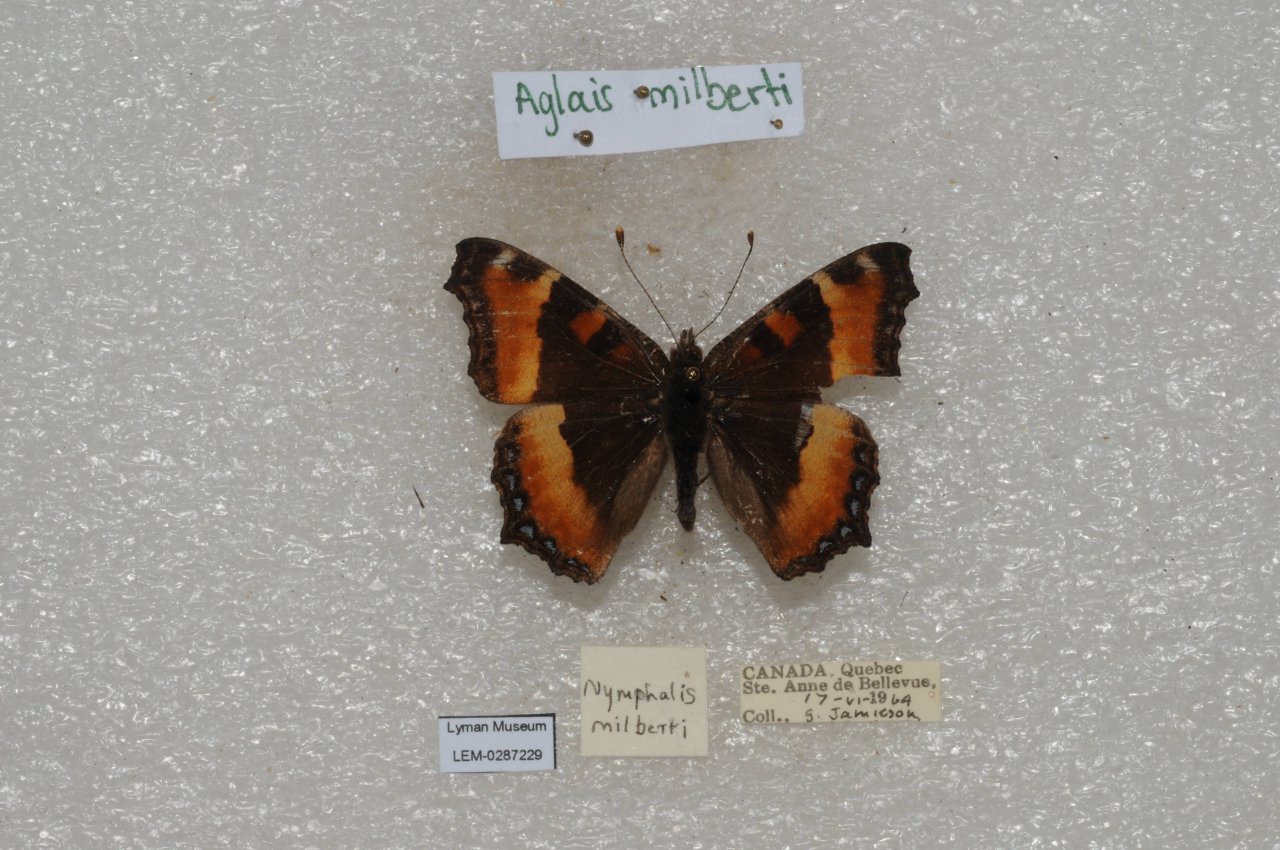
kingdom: Animalia
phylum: Arthropoda
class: Insecta
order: Lepidoptera
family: Nymphalidae
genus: Aglais
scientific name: Aglais milberti
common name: Milbert's Tortoiseshell
